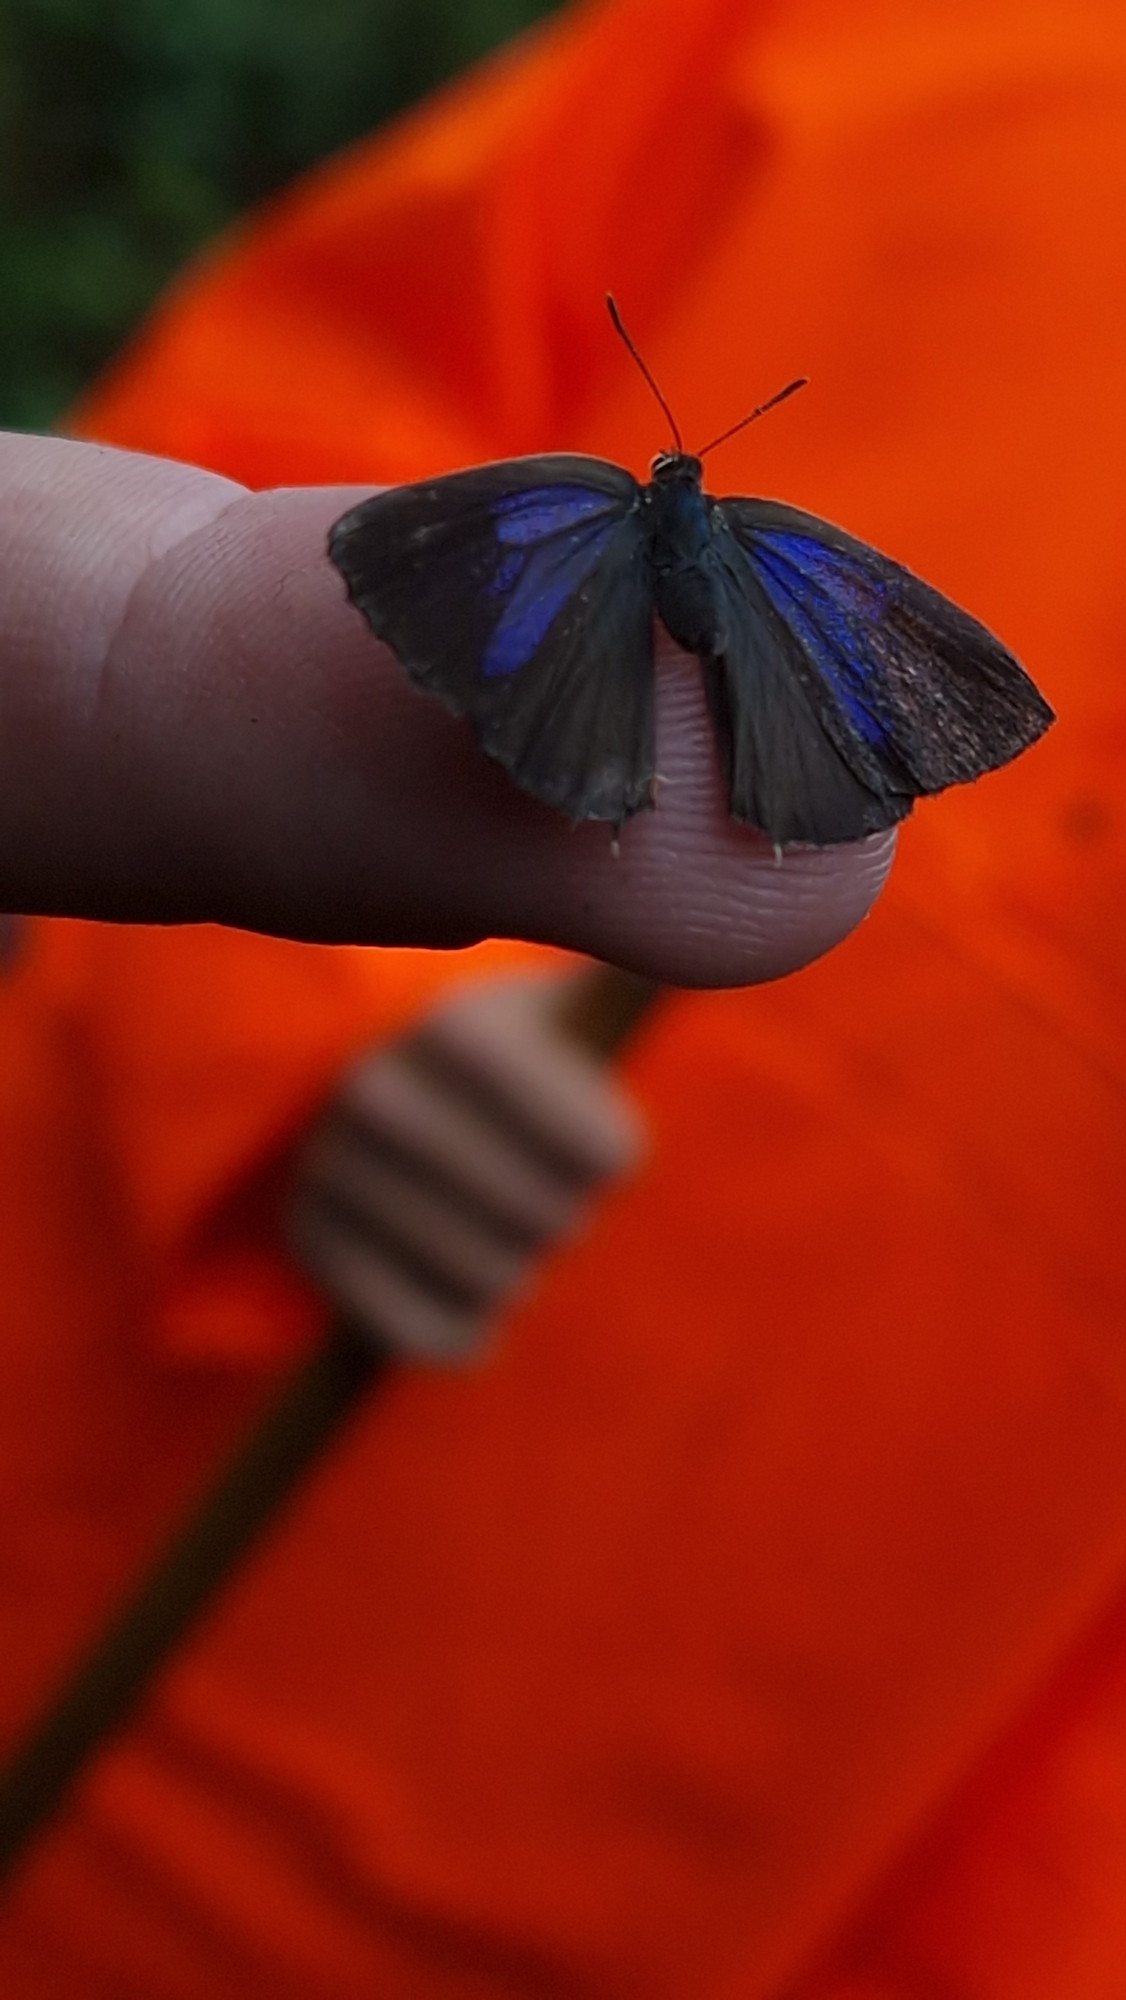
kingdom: Animalia
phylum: Arthropoda
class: Insecta
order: Lepidoptera
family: Lycaenidae
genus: Quercusia
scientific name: Quercusia quercus
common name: Blåhale
